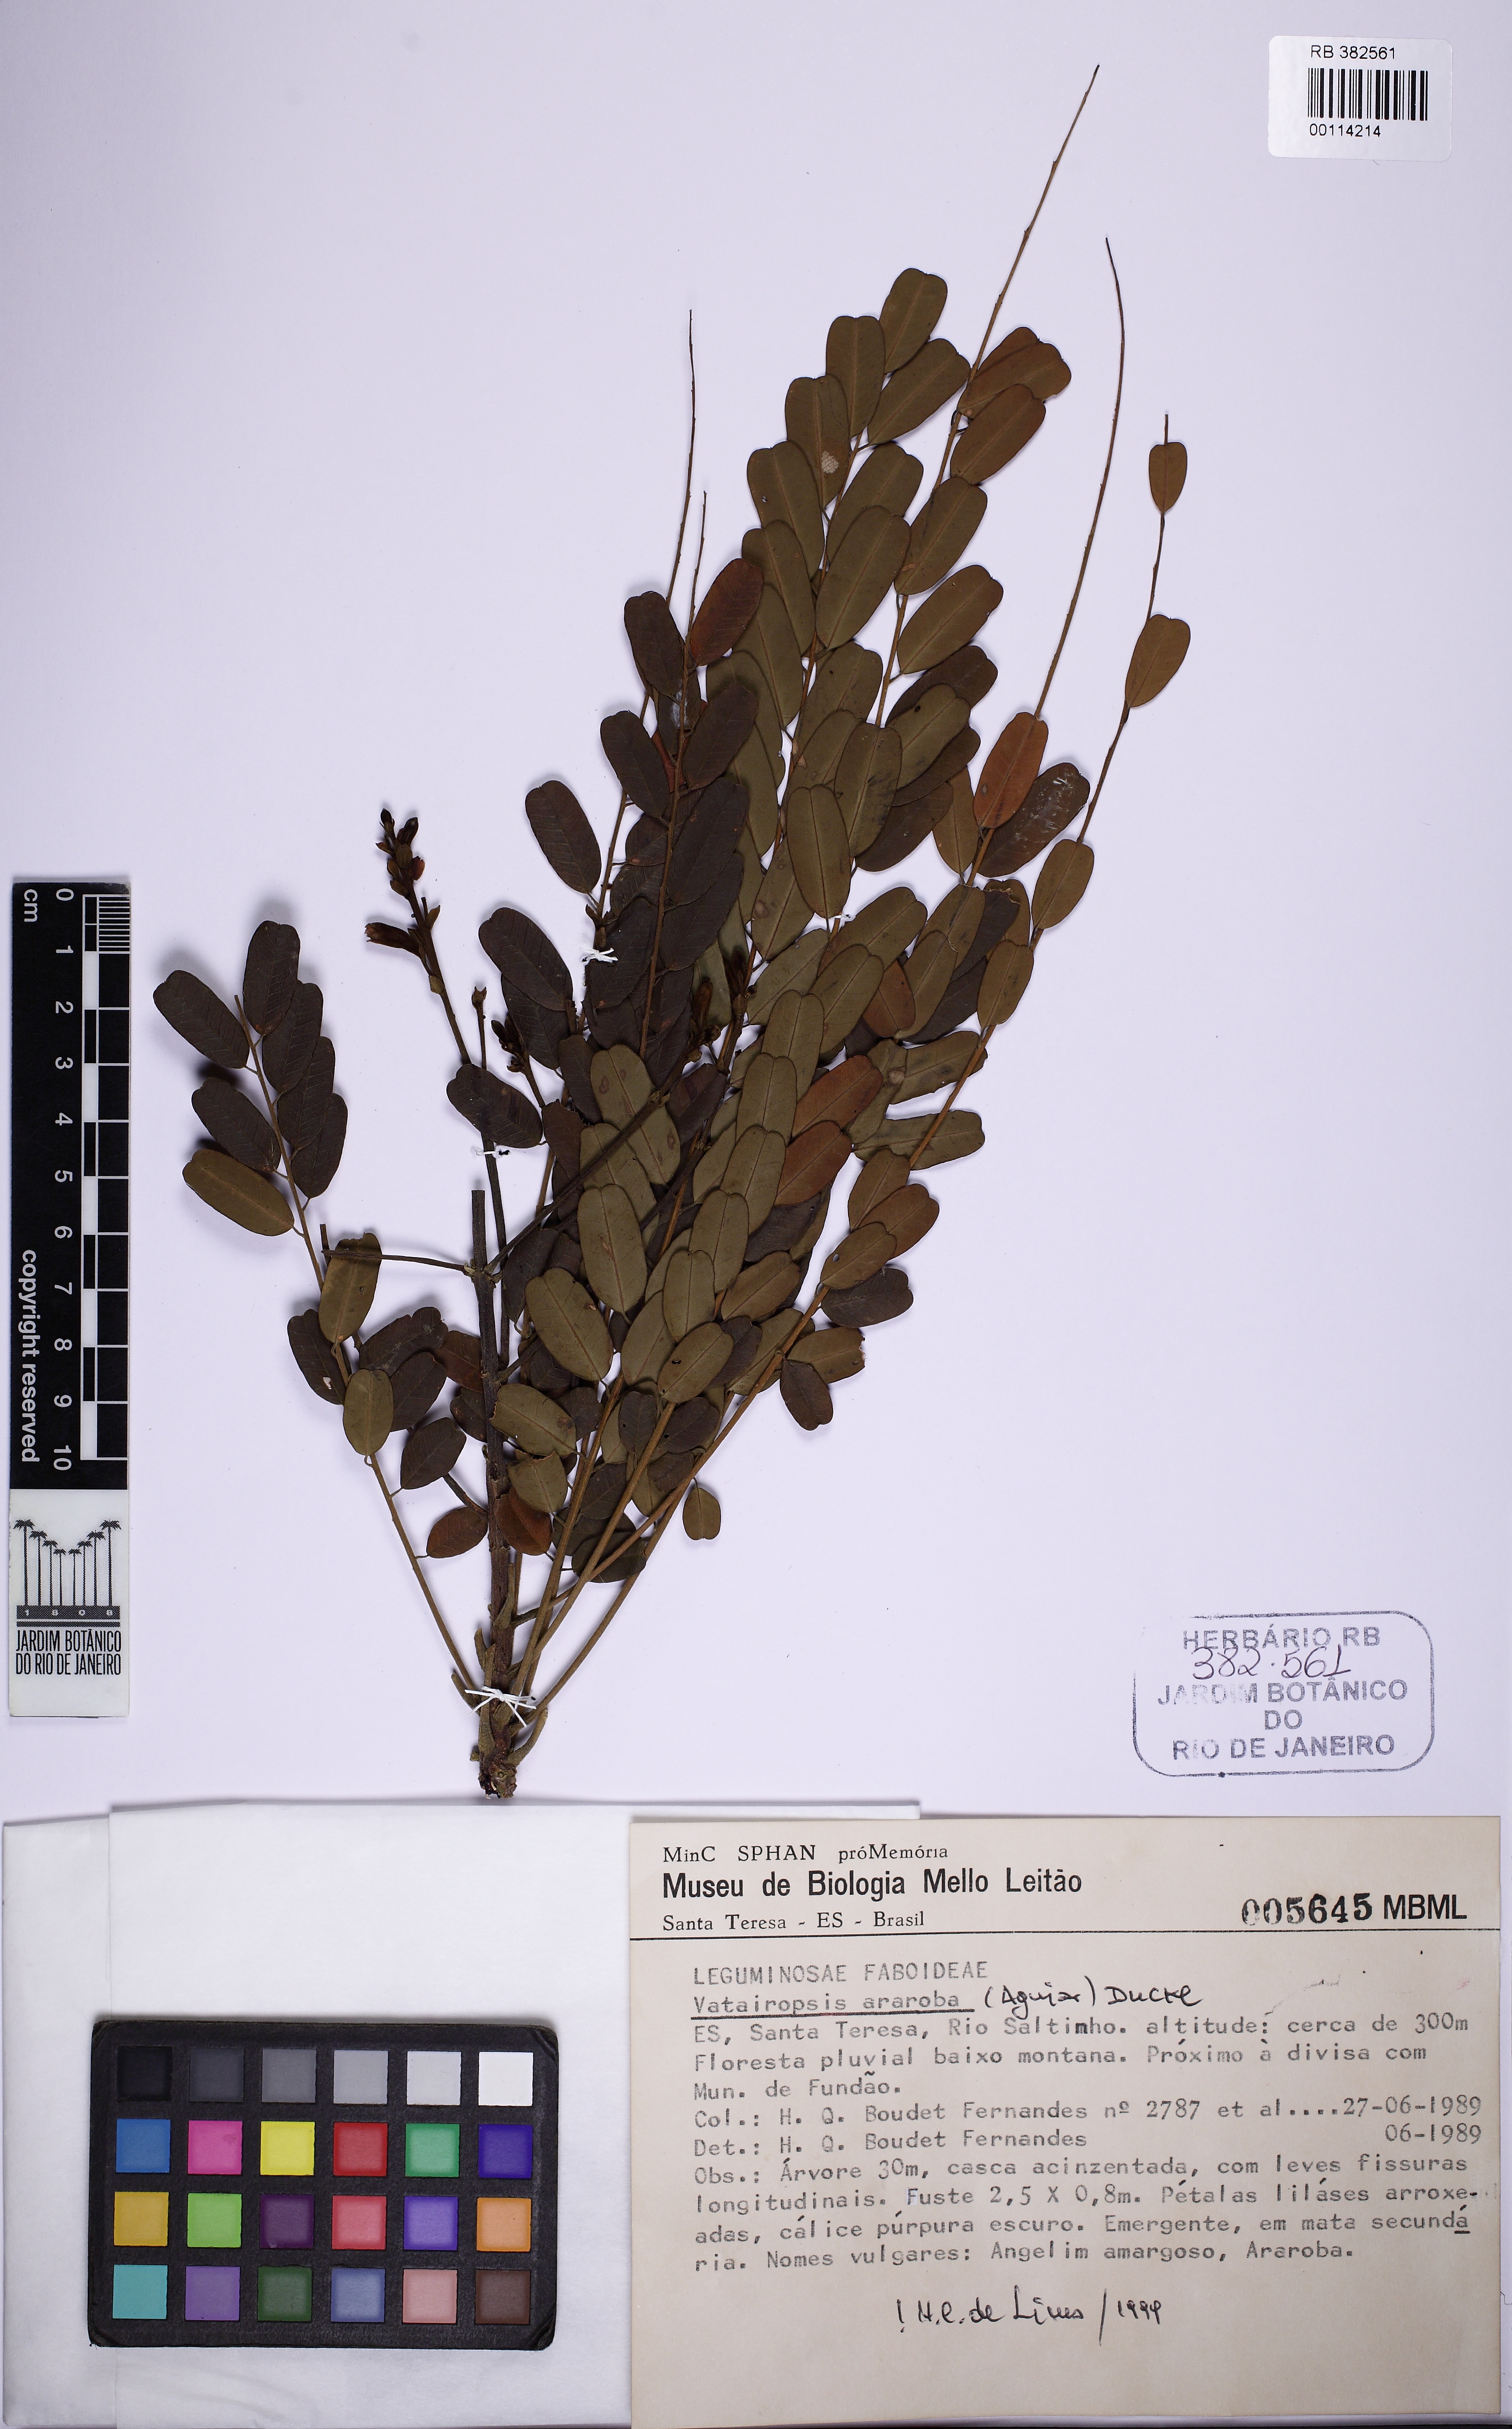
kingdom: Plantae
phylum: Tracheophyta
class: Magnoliopsida
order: Fabales
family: Fabaceae
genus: Vataireopsis
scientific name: Vataireopsis araroba
